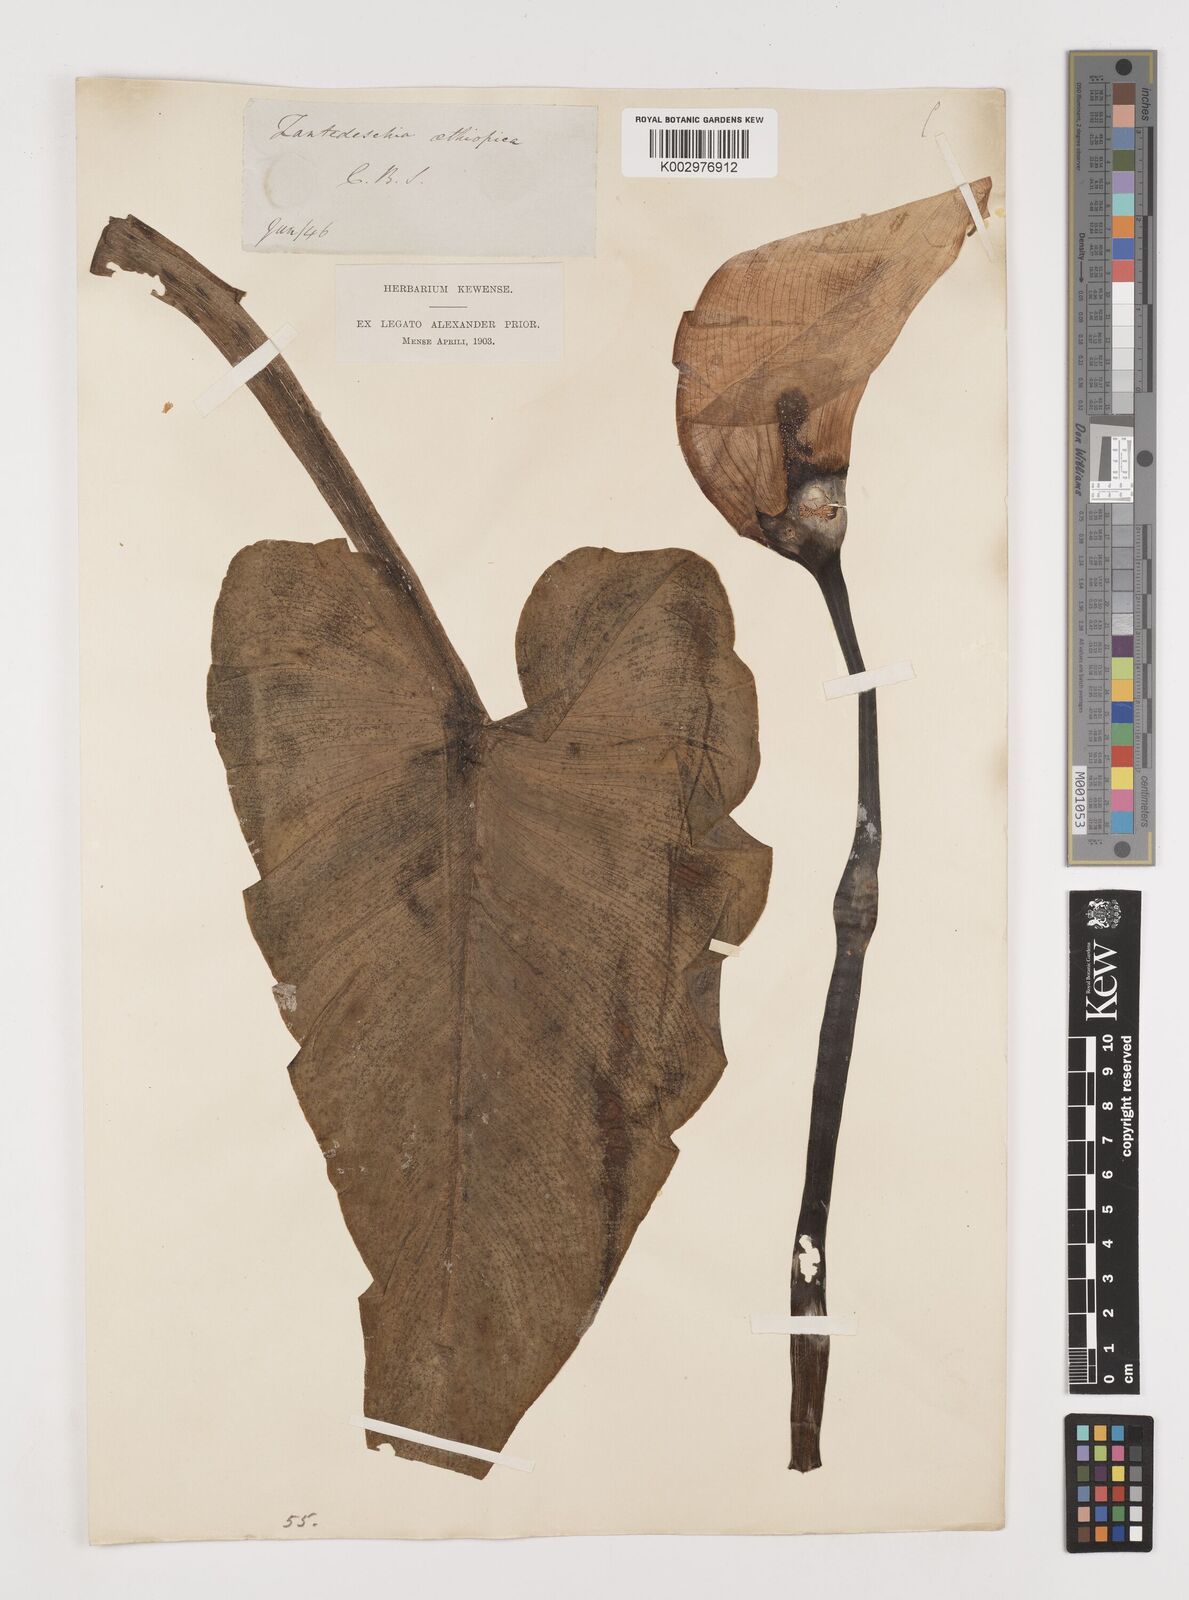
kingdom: Plantae
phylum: Tracheophyta
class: Liliopsida
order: Alismatales
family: Araceae
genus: Zantedeschia
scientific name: Zantedeschia aethiopica
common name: Altar-lily
